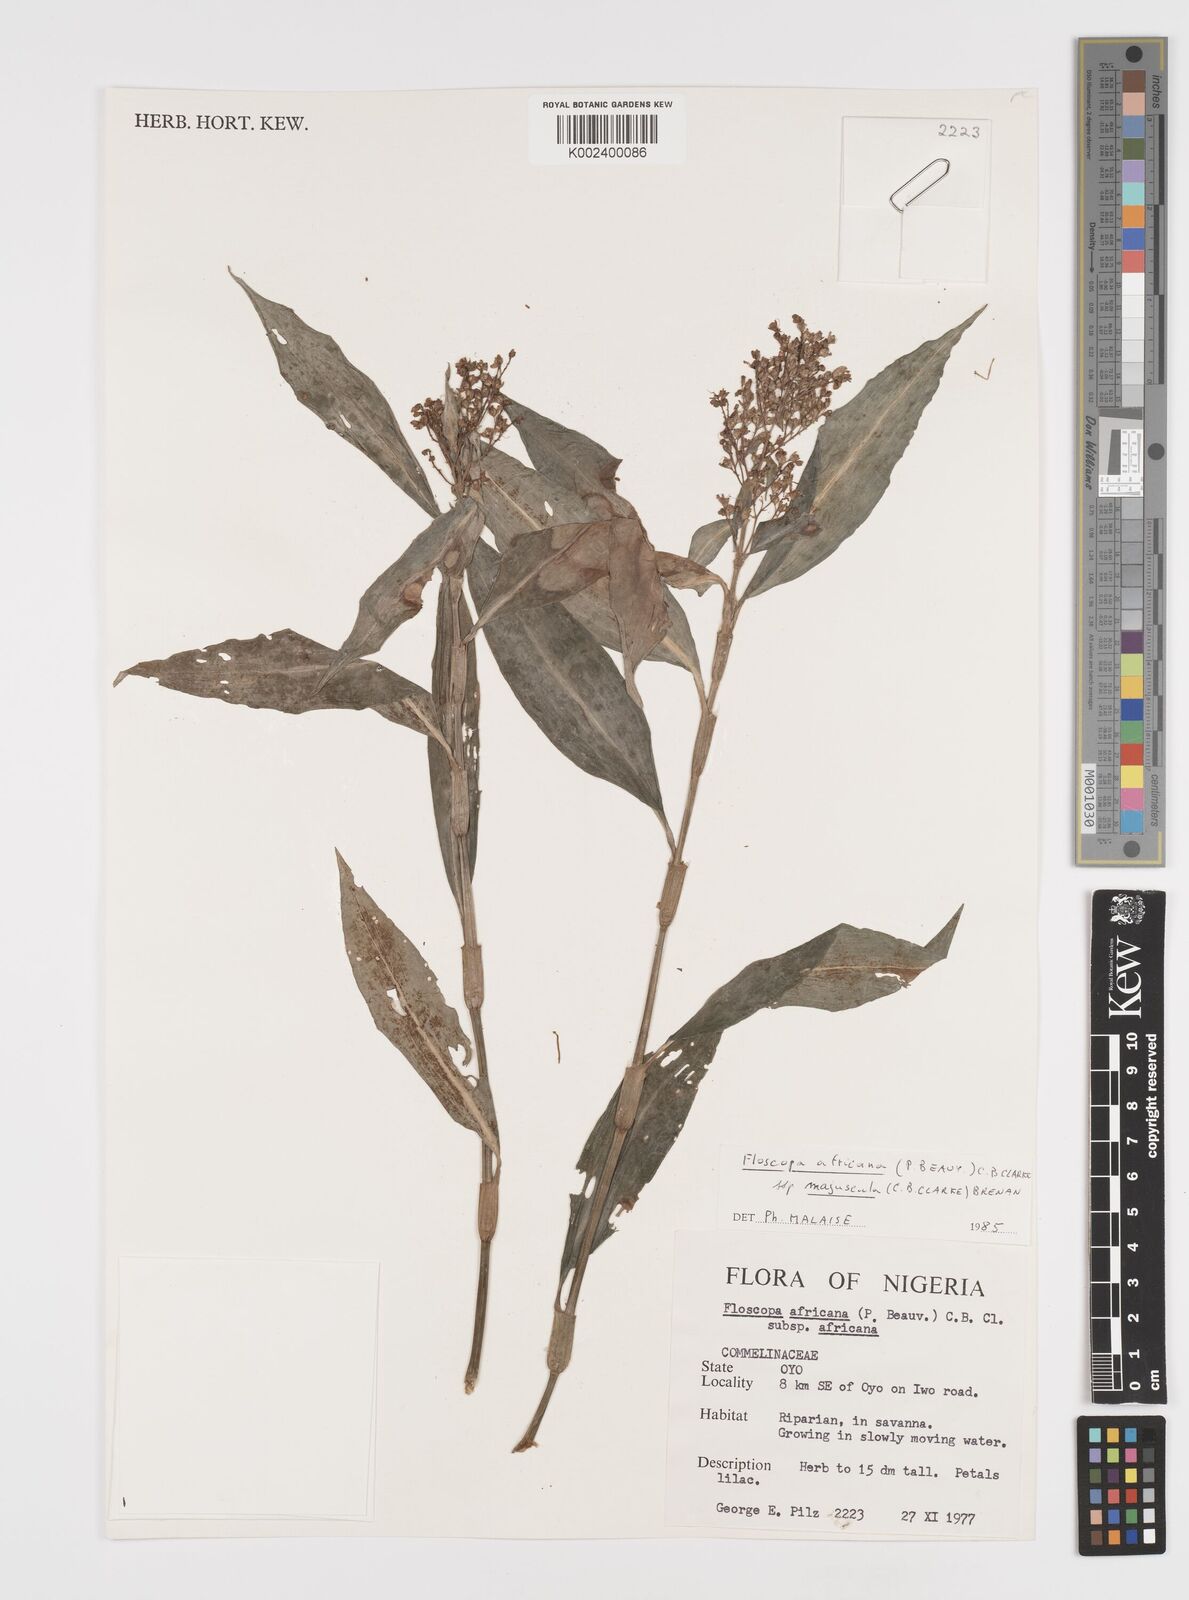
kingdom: Plantae
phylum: Tracheophyta
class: Liliopsida
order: Commelinales
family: Commelinaceae
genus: Floscopa
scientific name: Floscopa africana
